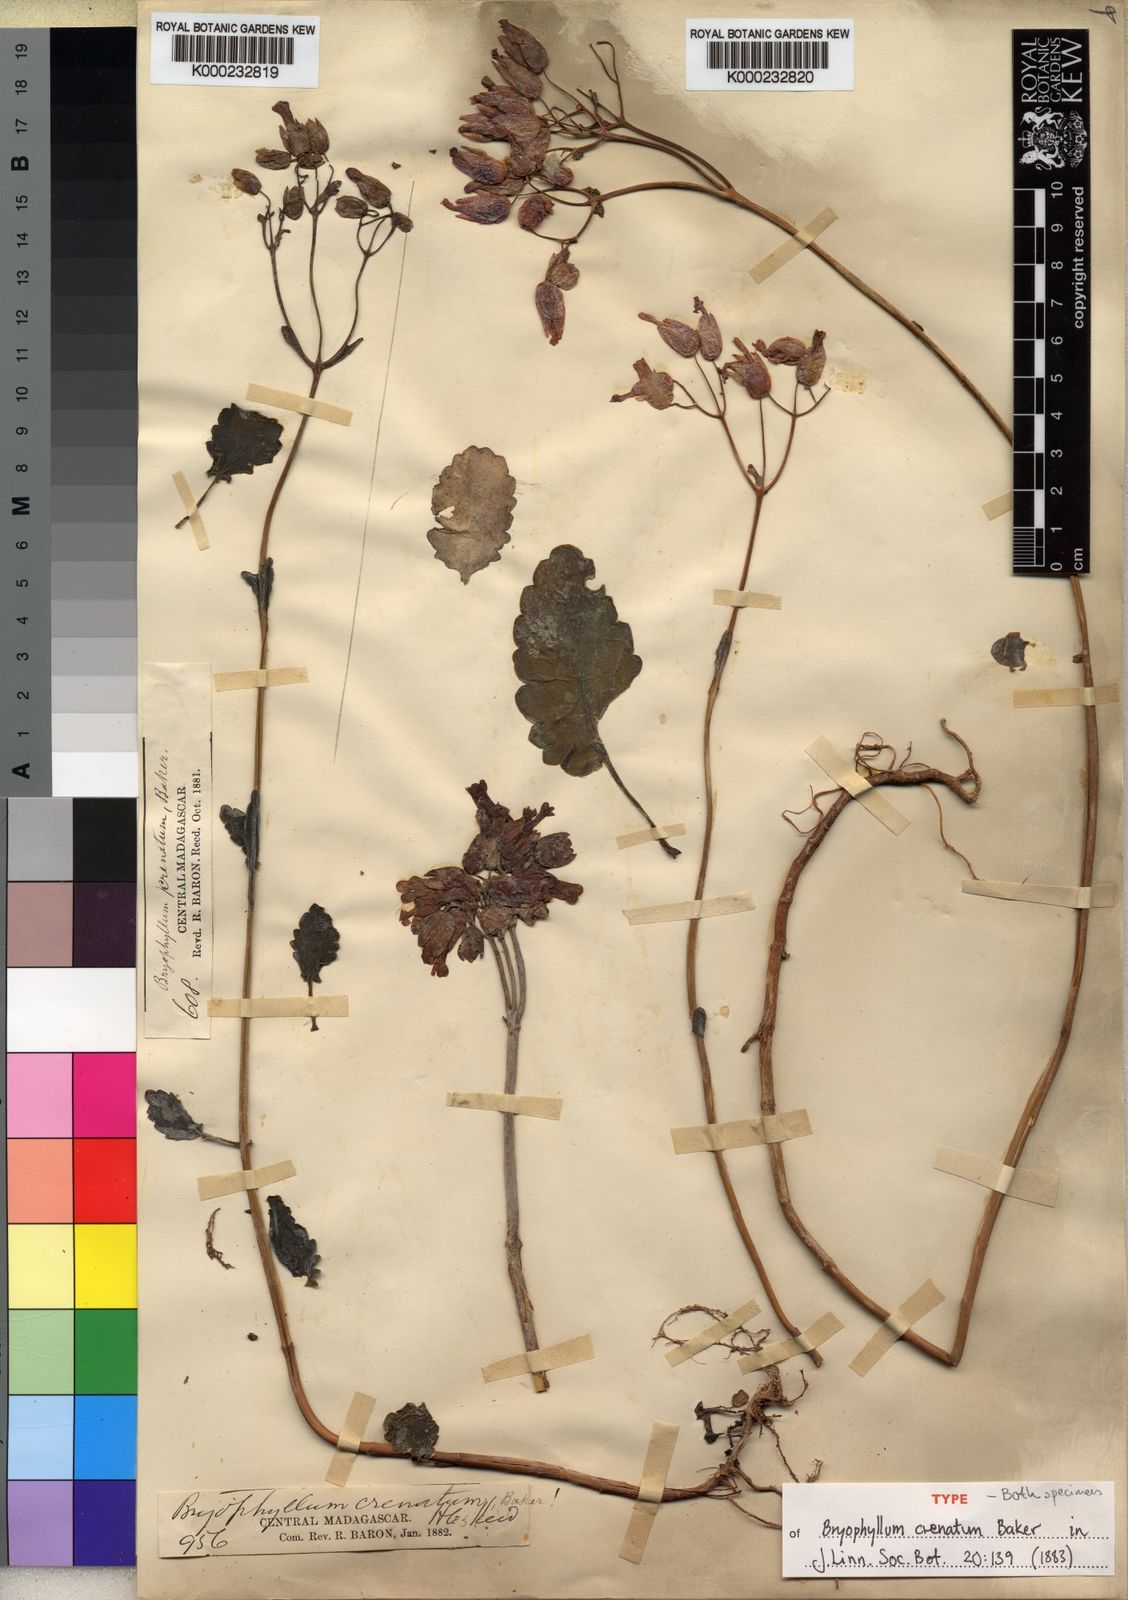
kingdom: Plantae
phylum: Tracheophyta
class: Magnoliopsida
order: Saxifragales
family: Crassulaceae
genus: Kalanchoe
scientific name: Kalanchoe crenata
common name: Neverdie
